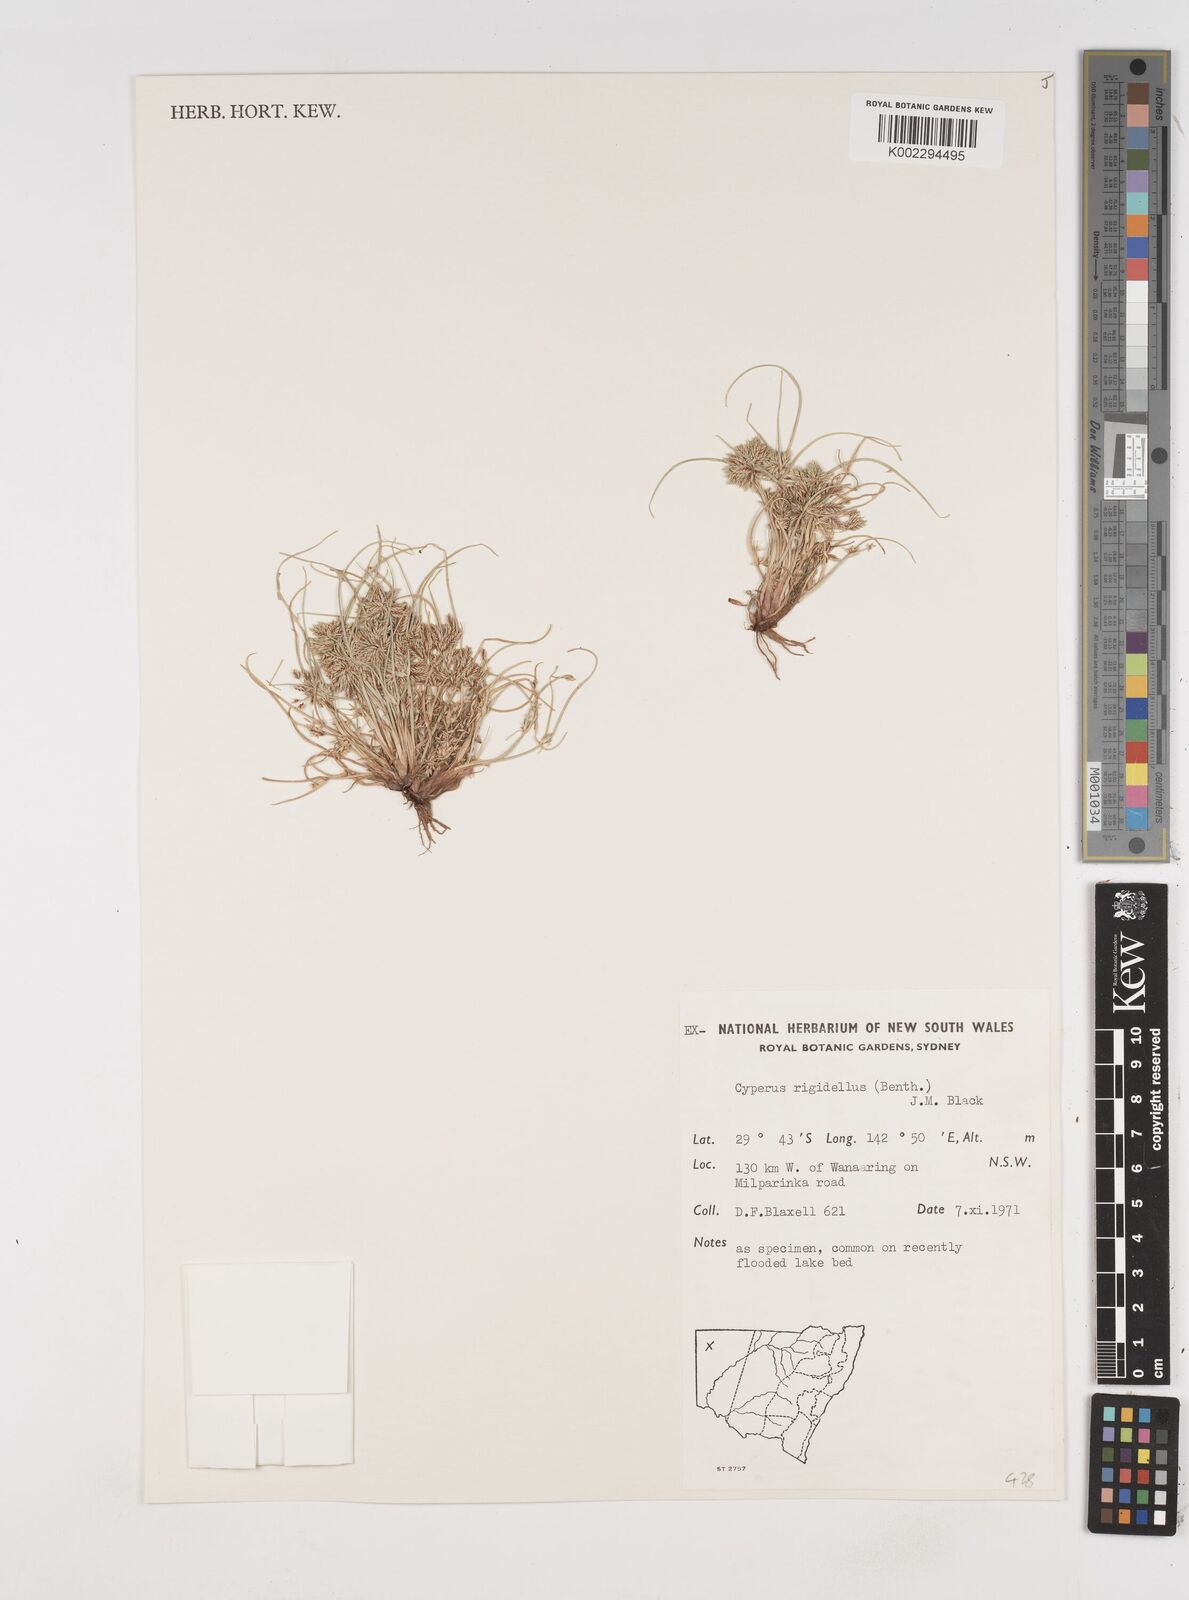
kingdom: Plantae
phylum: Tracheophyta
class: Liliopsida
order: Poales
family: Cyperaceae
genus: Cyperus
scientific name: Cyperus rigidellus
